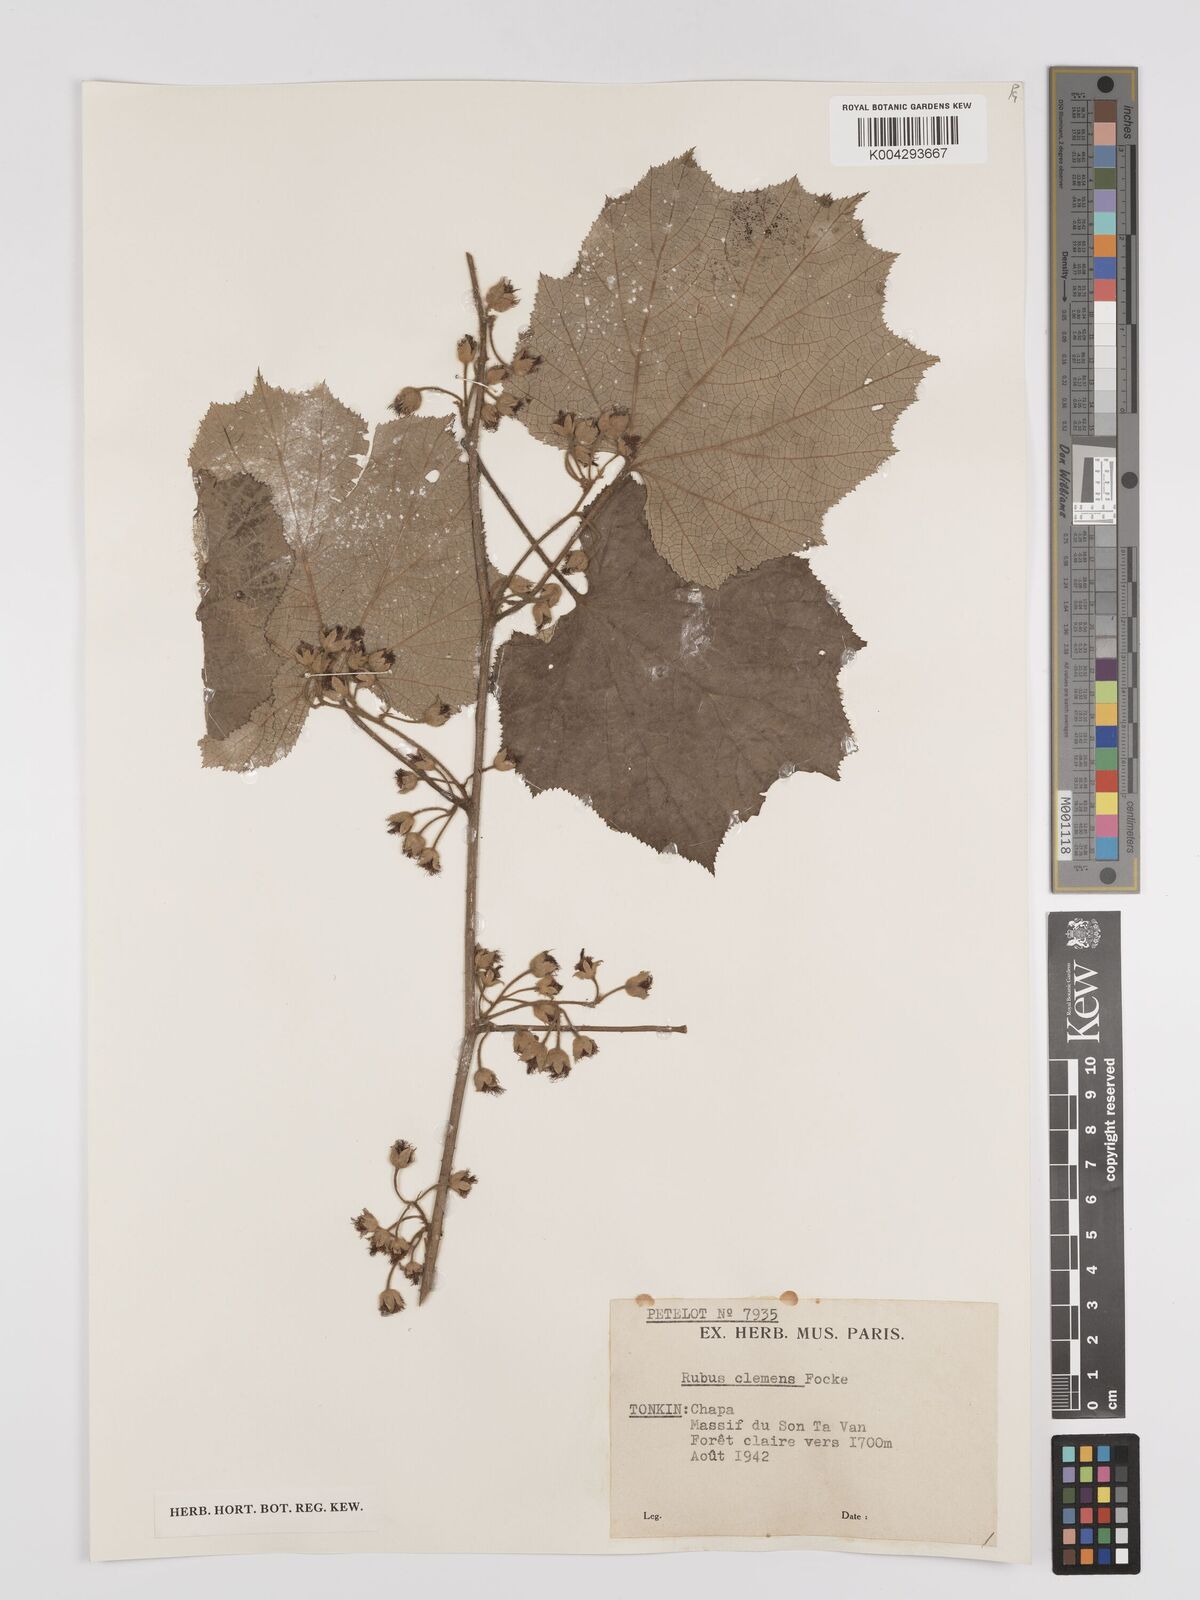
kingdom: Plantae
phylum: Tracheophyta
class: Magnoliopsida
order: Rosales
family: Rosaceae
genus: Rubus
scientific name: Rubus setchuenensis
